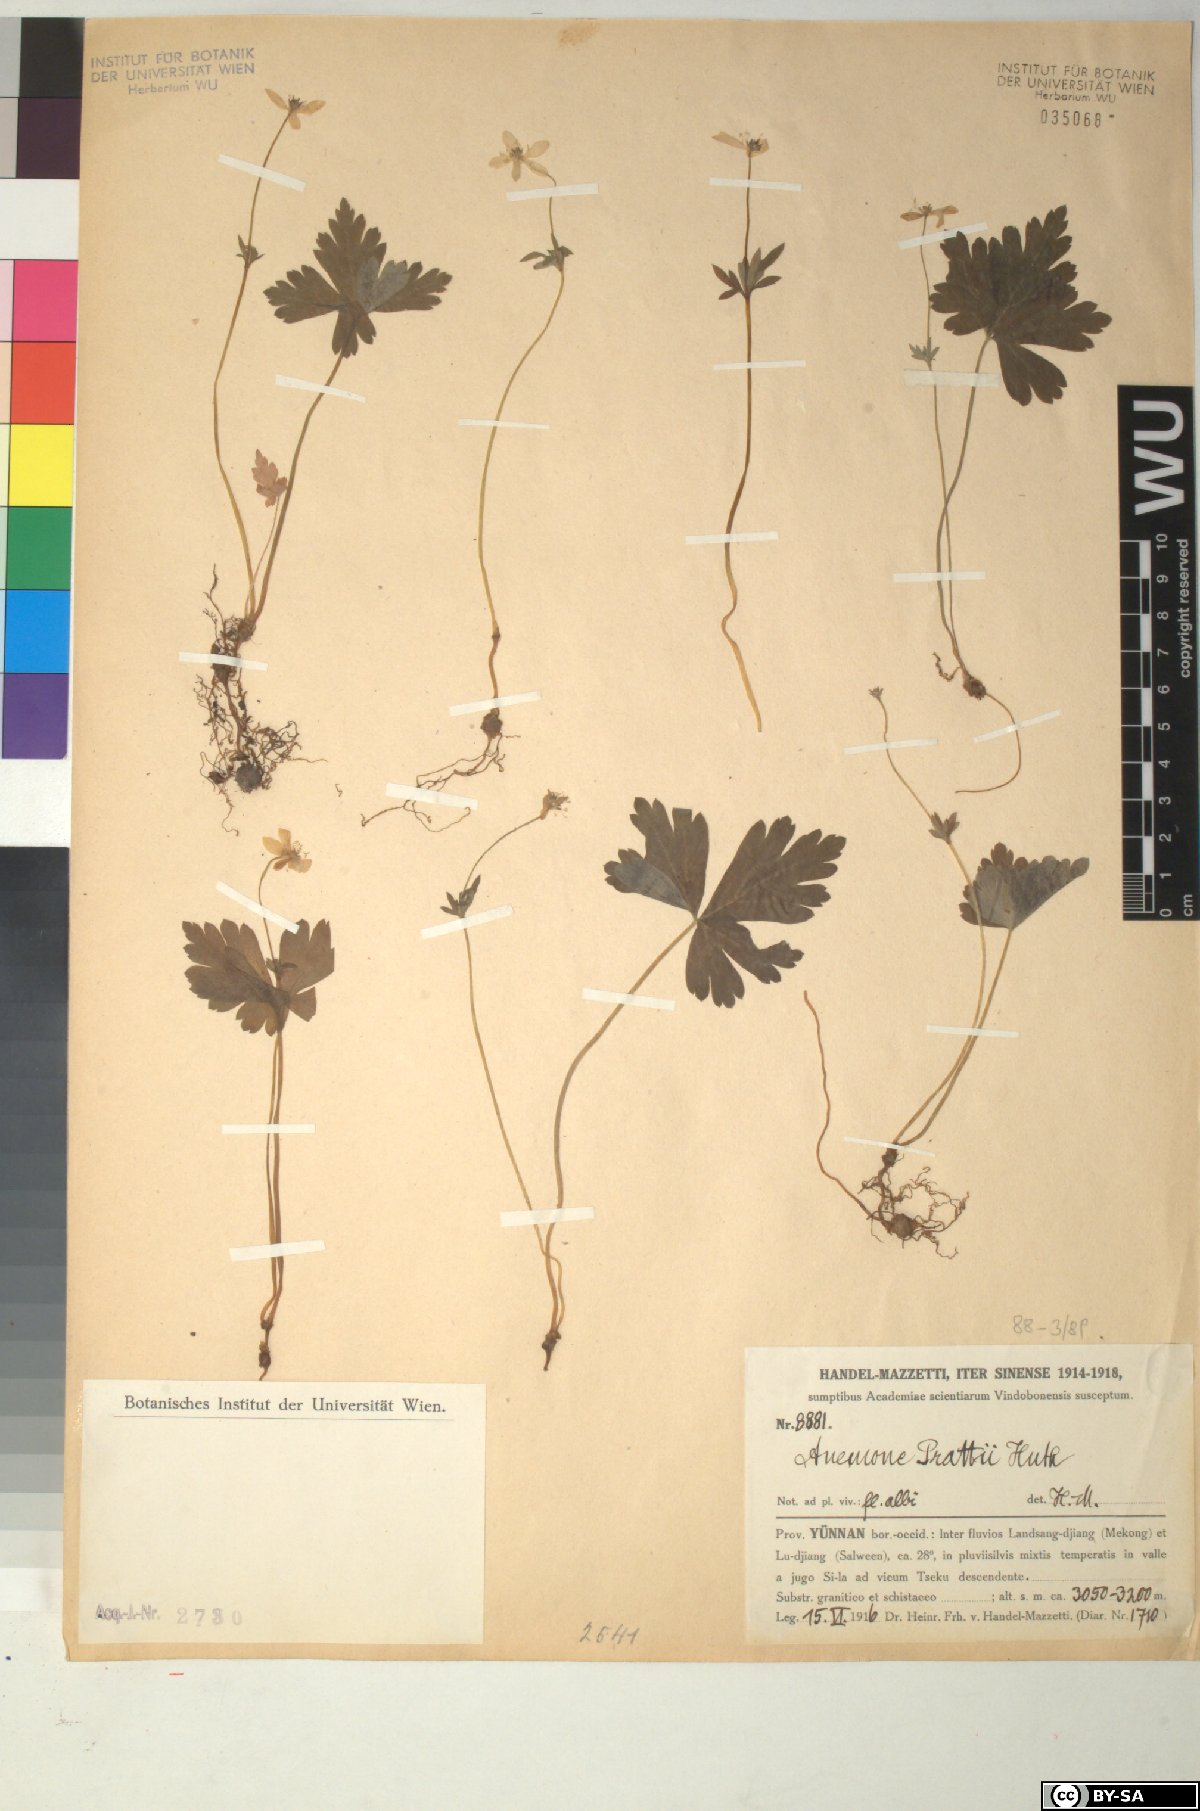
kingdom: Plantae
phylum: Tracheophyta
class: Magnoliopsida
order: Ranunculales
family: Ranunculaceae
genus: Anemonastrum
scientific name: Anemonastrum prattii
